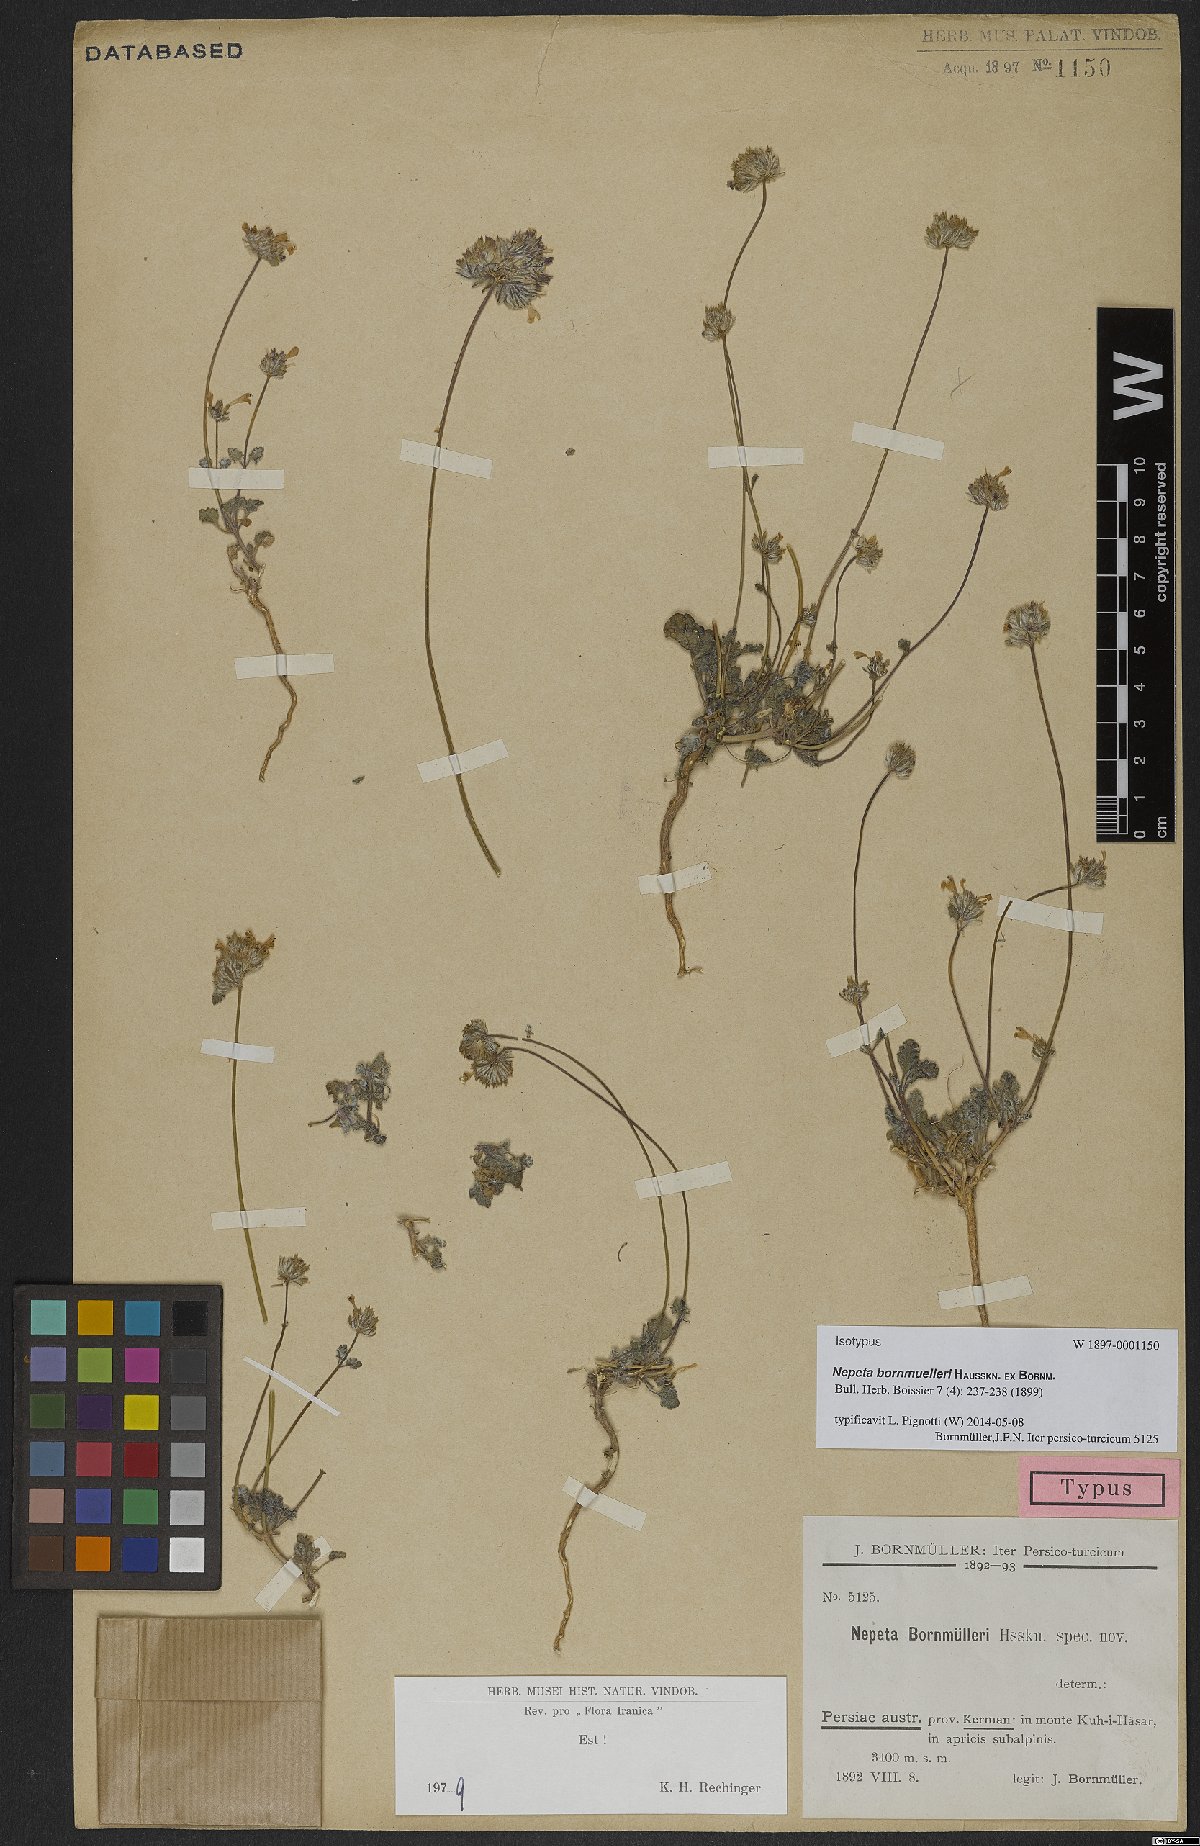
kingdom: Plantae
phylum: Tracheophyta
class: Magnoliopsida
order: Lamiales
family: Lamiaceae
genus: Nepeta
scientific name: Nepeta bornmuelleri
